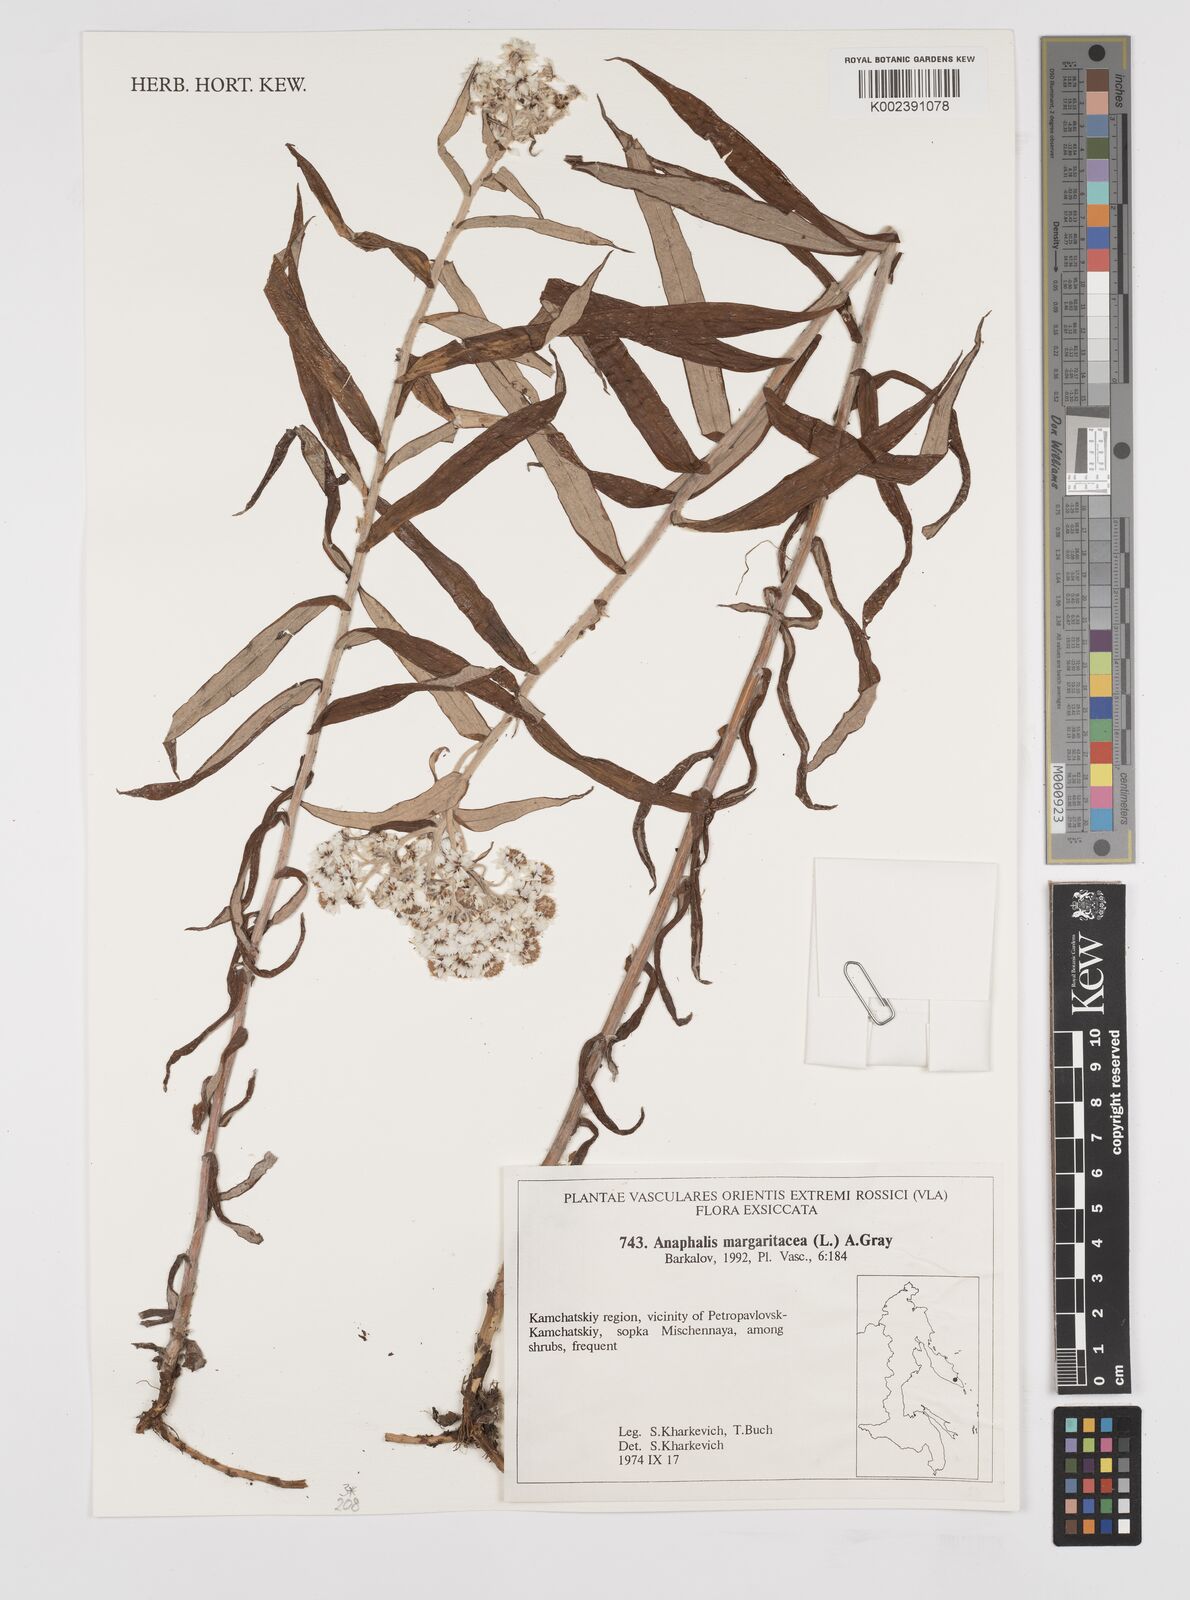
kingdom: Plantae
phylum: Tracheophyta
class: Magnoliopsida
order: Asterales
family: Asteraceae
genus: Anaphalis
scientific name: Anaphalis margaritacea
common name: Pearly everlasting
